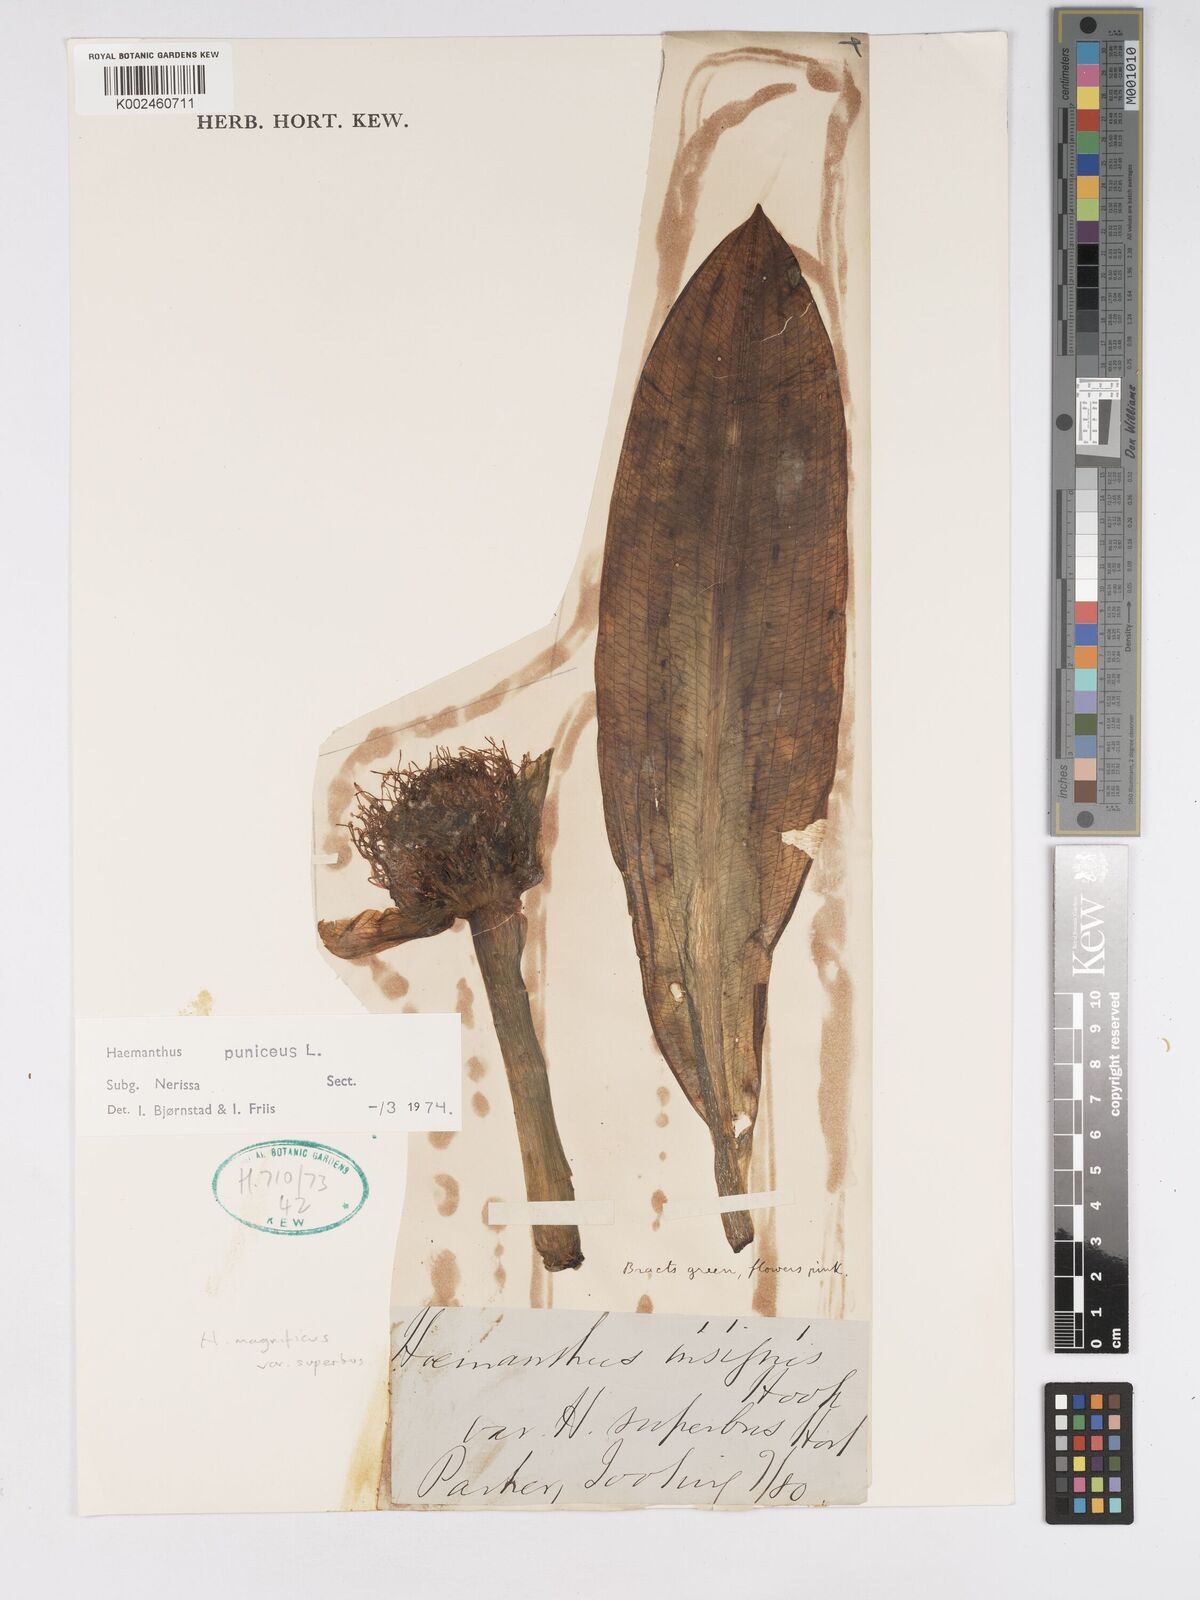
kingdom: Plantae
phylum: Tracheophyta
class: Liliopsida
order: Asparagales
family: Amaryllidaceae
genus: Scadoxus
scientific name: Scadoxus puniceus
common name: Royal-paintbrush
